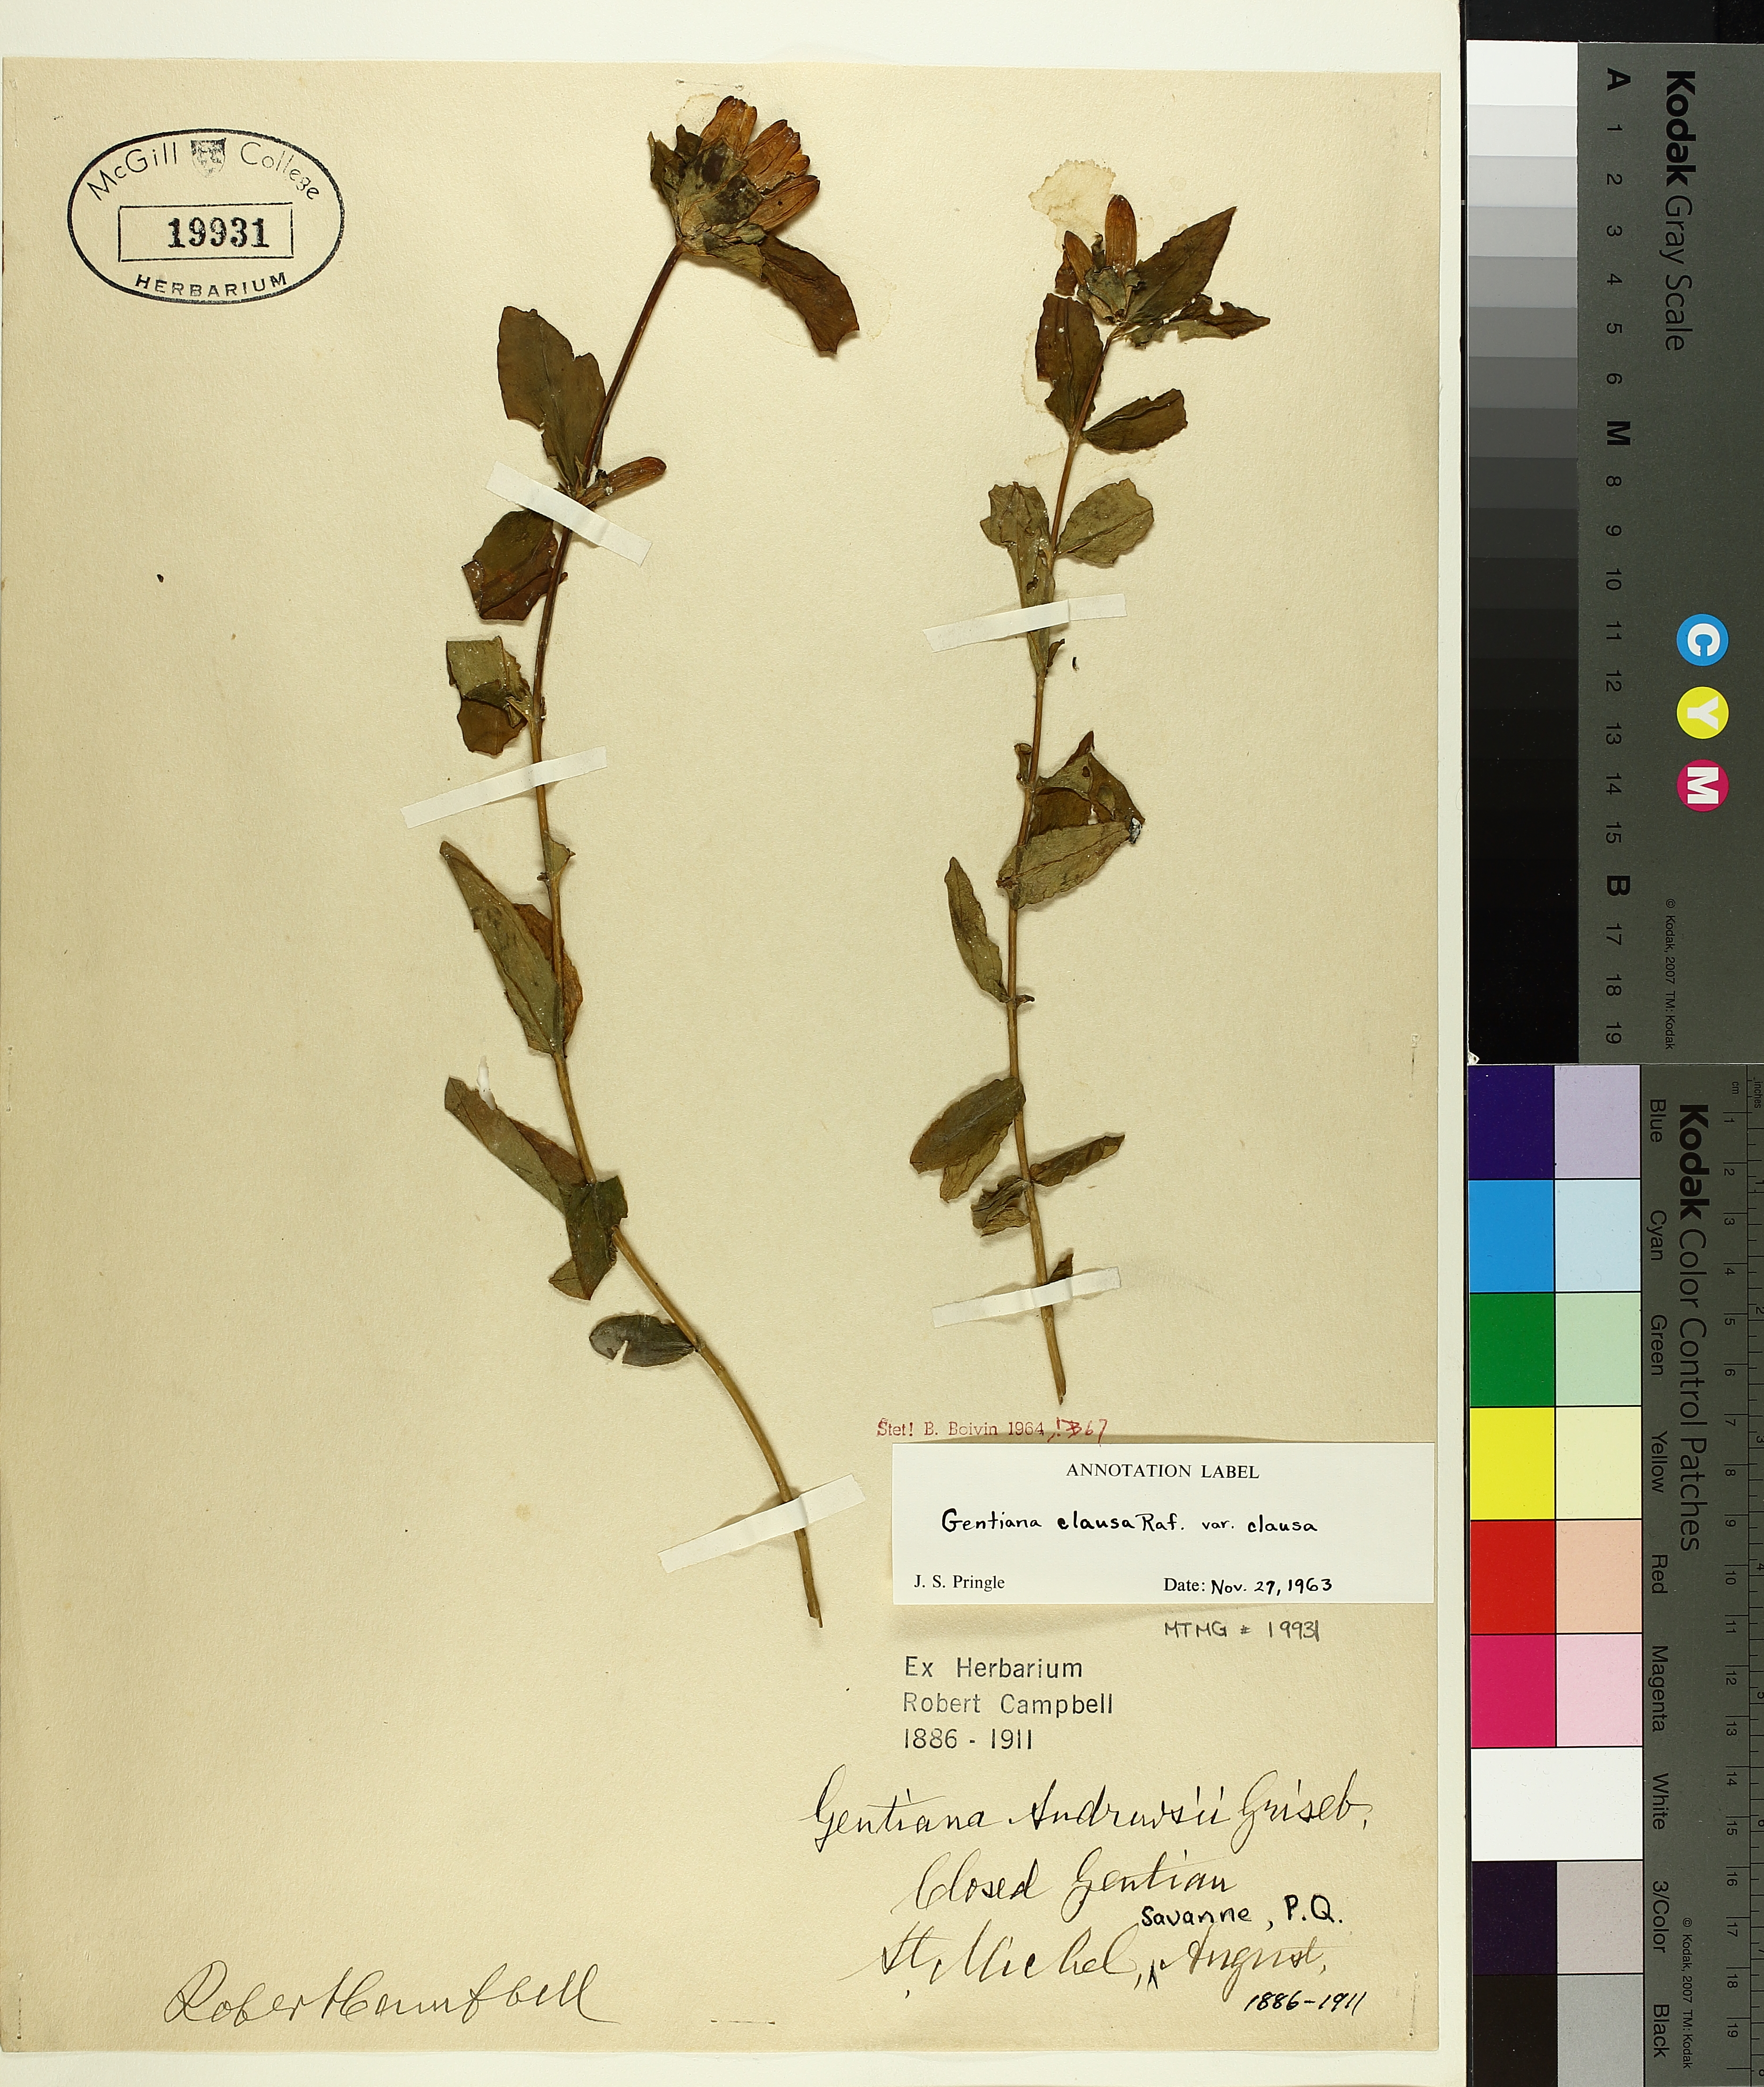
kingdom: Plantae
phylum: Tracheophyta
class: Magnoliopsida
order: Gentianales
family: Gentianaceae
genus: Gentiana
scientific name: Gentiana clausa
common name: Blind gentian
